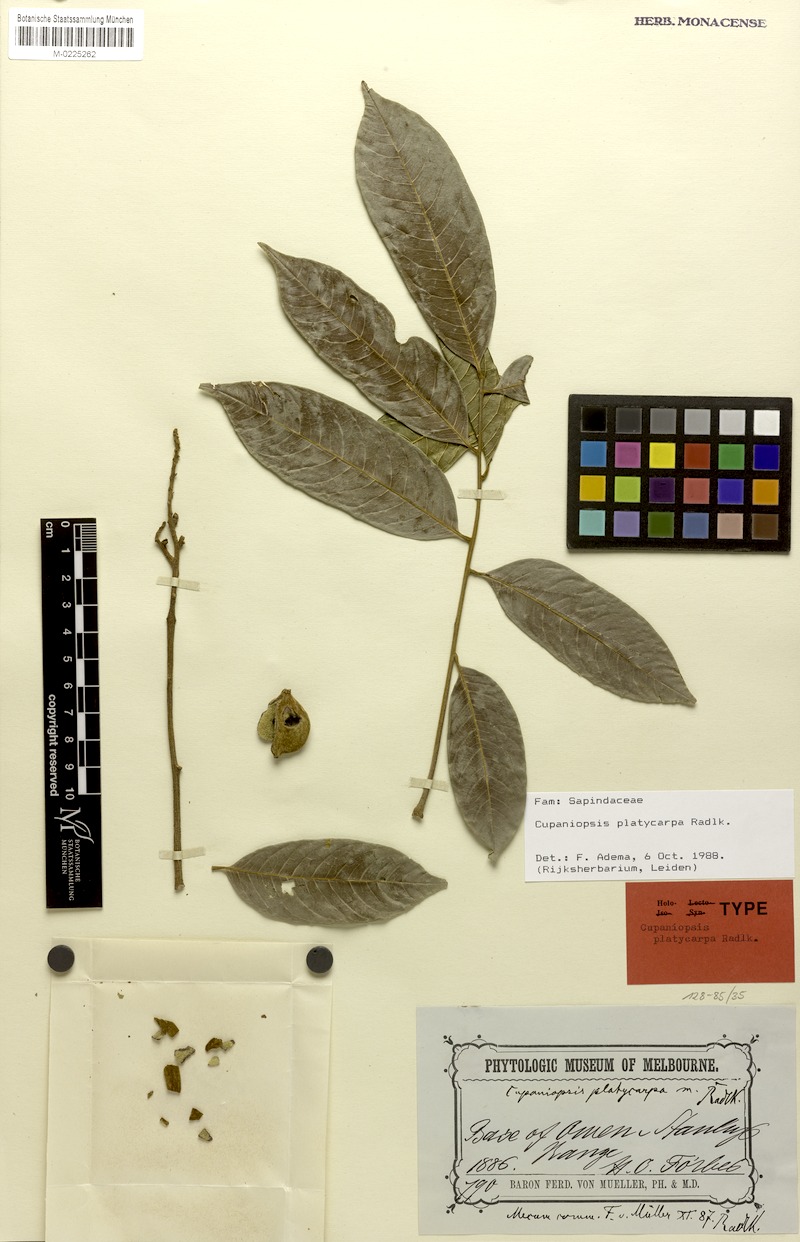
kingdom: Plantae
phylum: Tracheophyta
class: Magnoliopsida
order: Sapindales
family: Sapindaceae
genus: Cupaniopsis
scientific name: Cupaniopsis platycarpa
